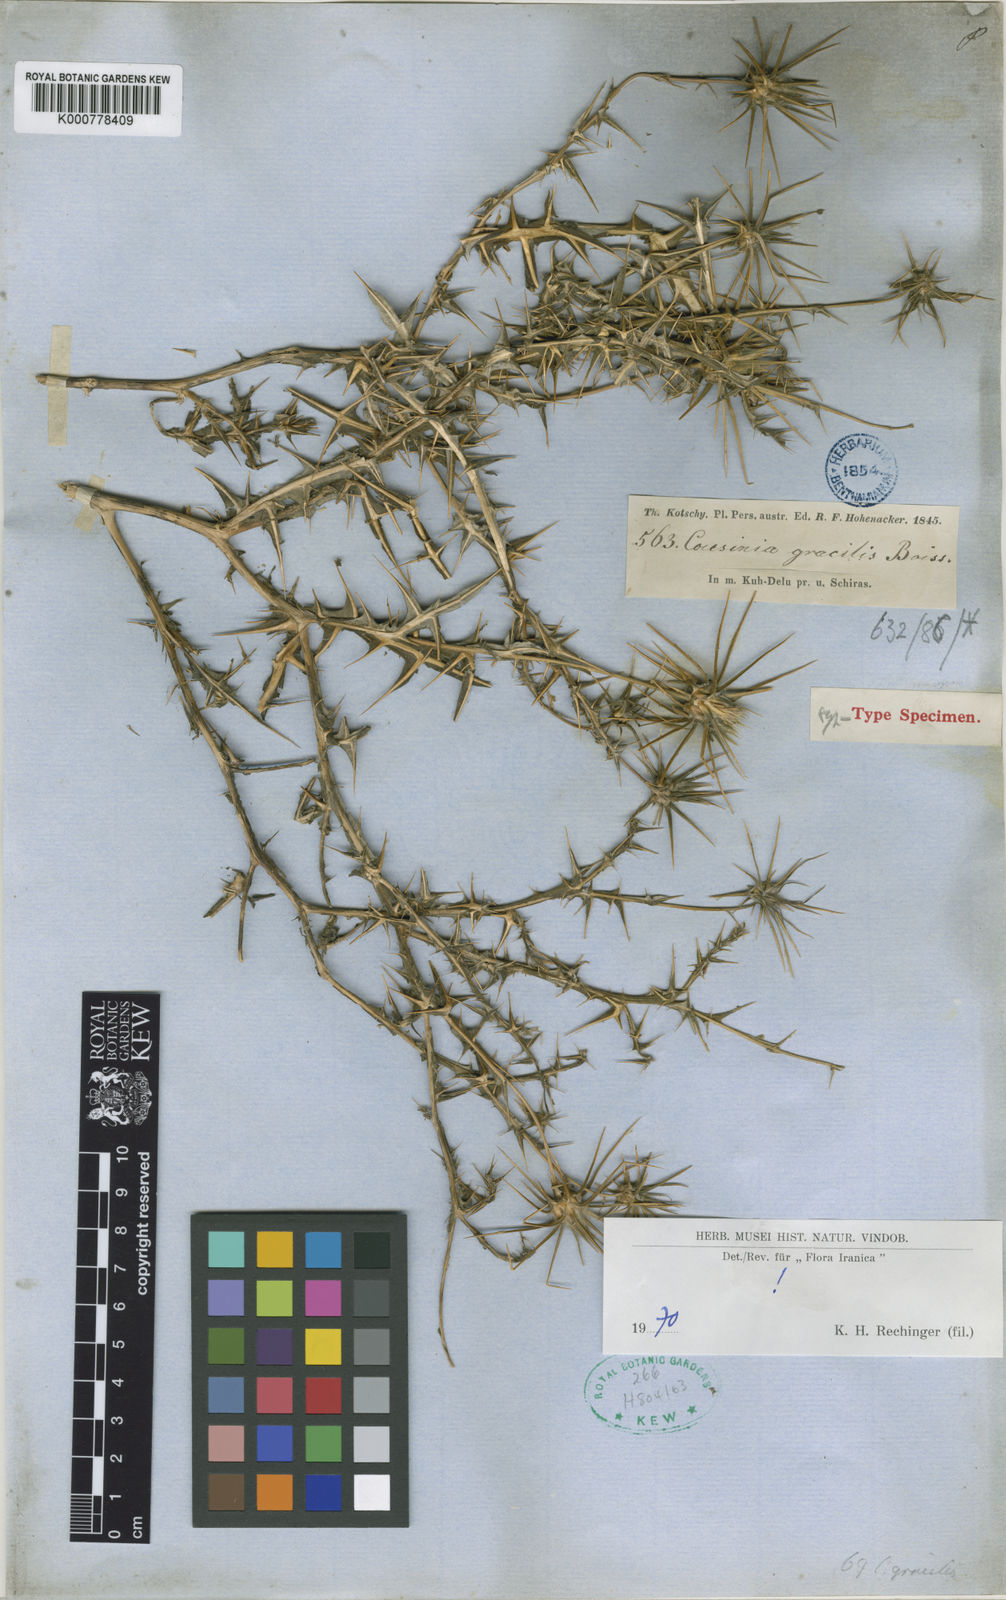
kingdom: Plantae
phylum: Tracheophyta
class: Magnoliopsida
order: Asterales
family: Asteraceae
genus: Cousinia
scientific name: Cousinia gracilis
